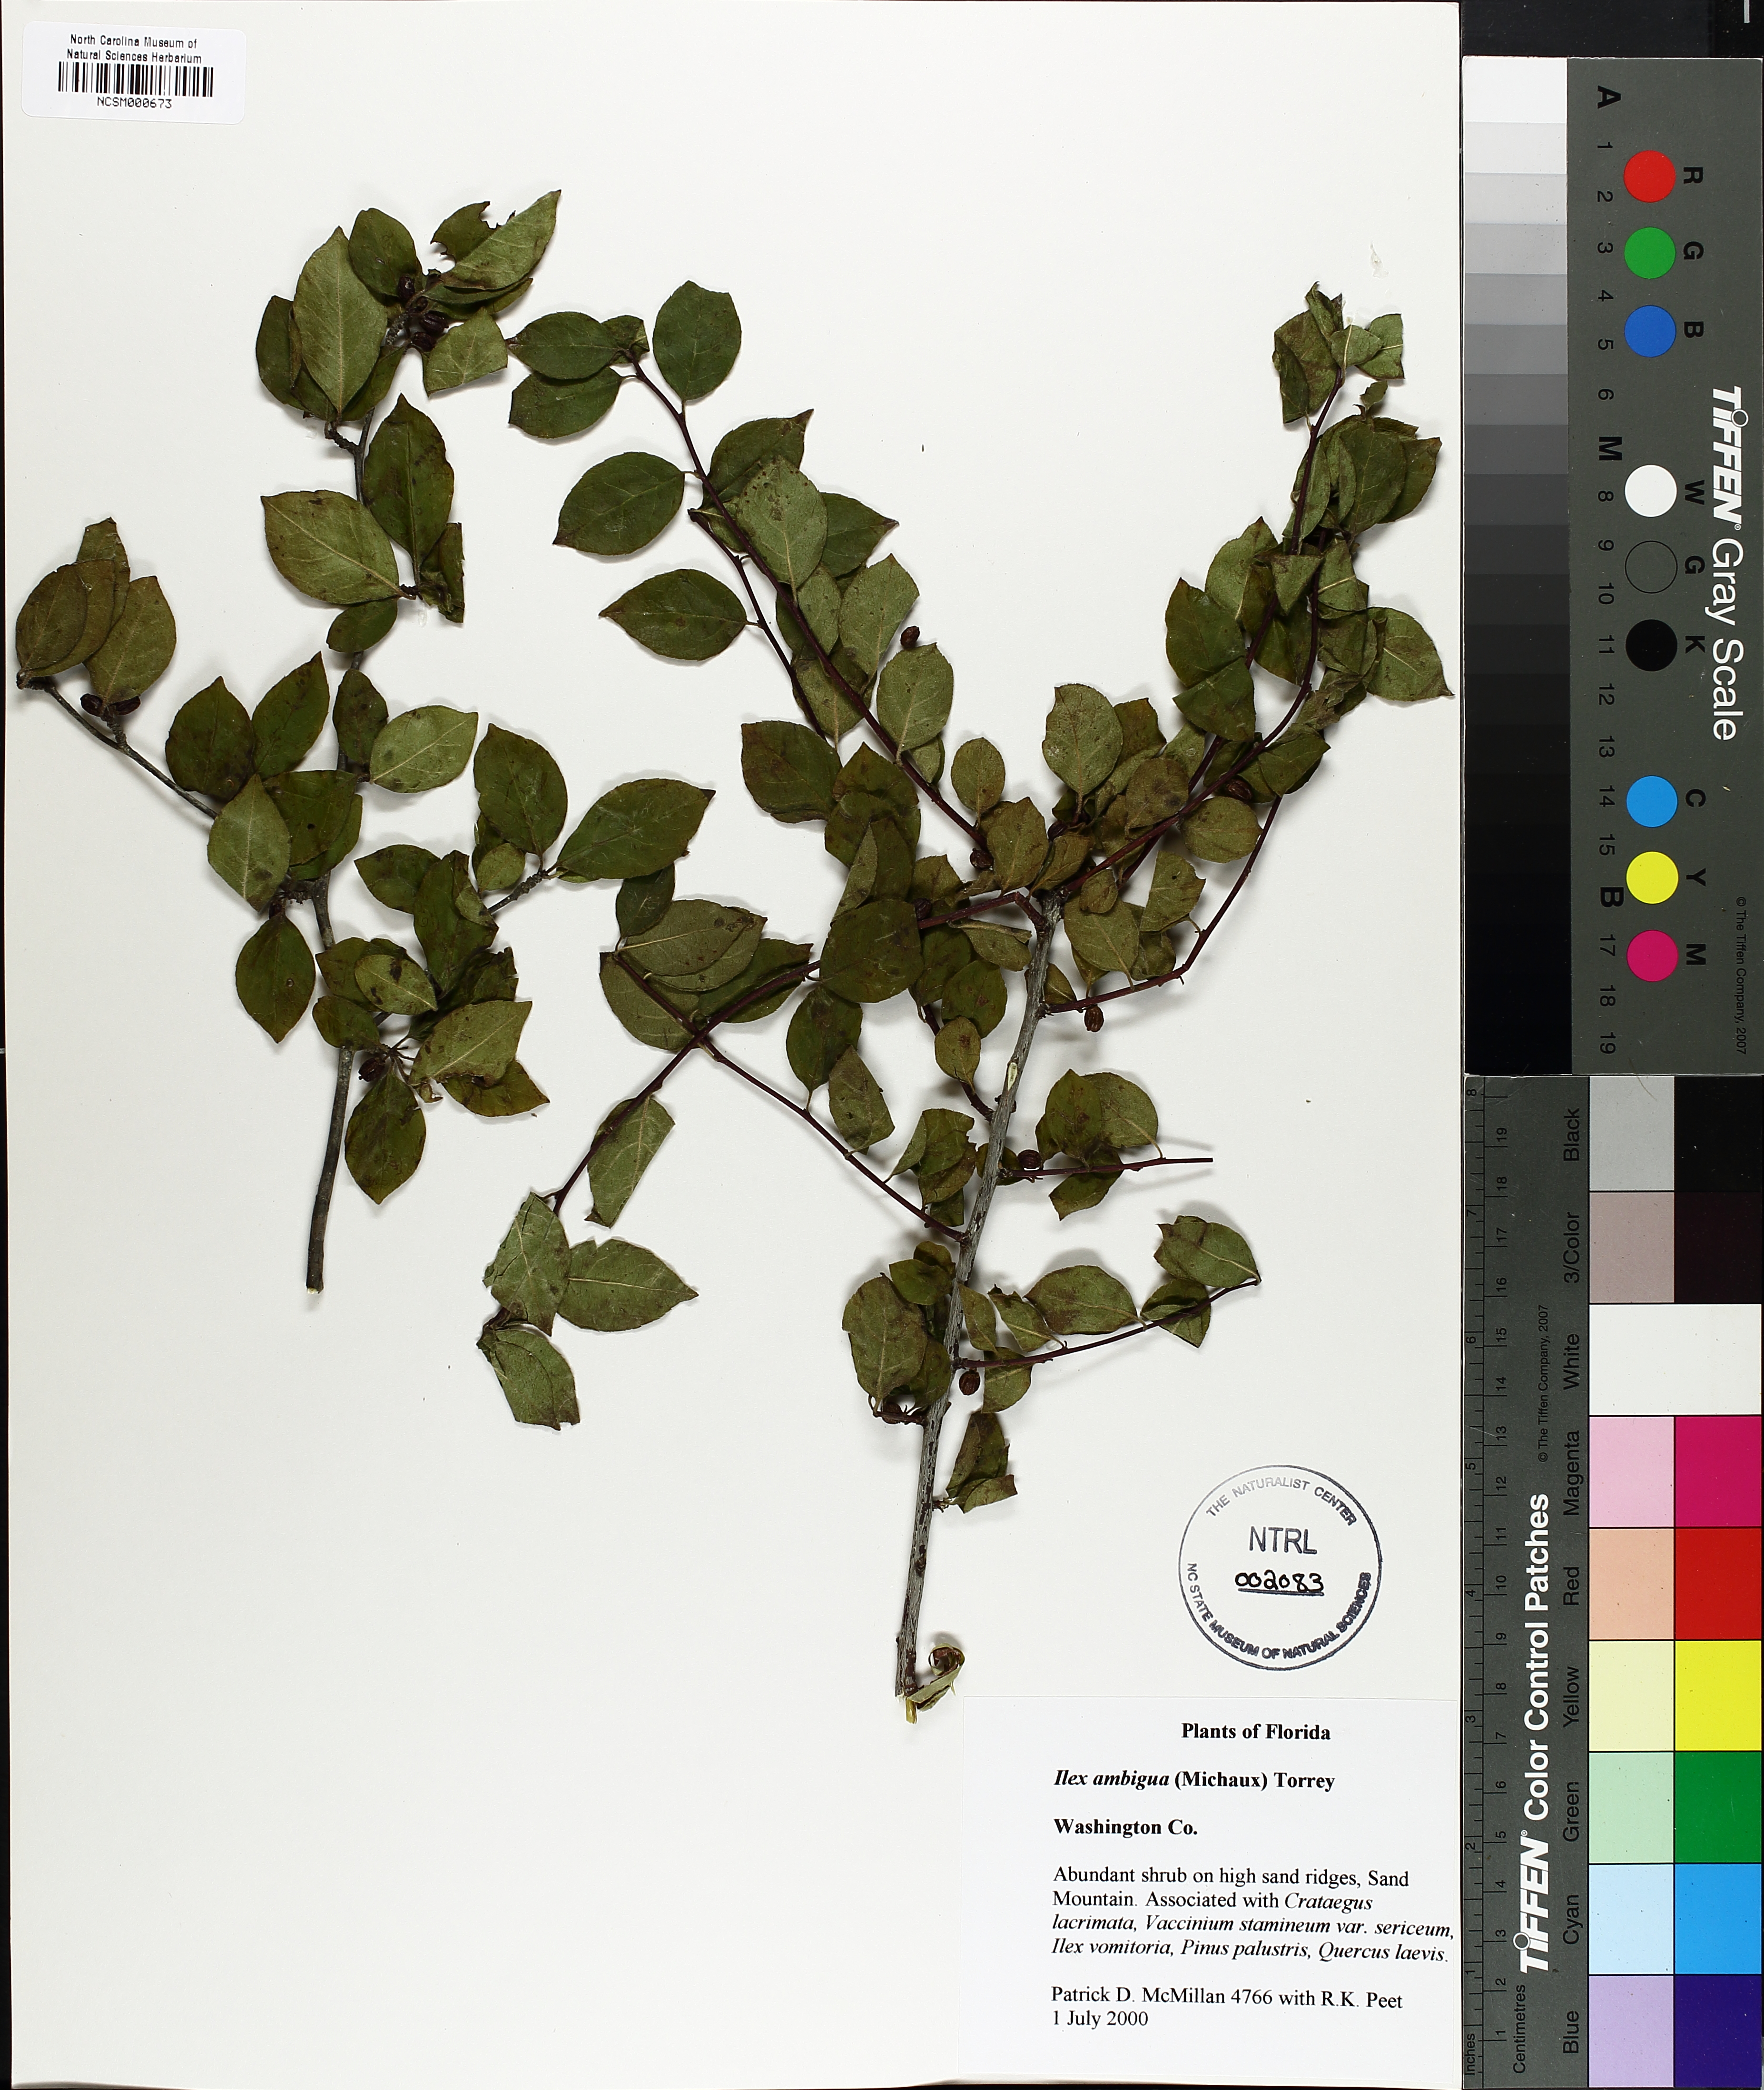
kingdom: Plantae
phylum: Tracheophyta
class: Magnoliopsida
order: Aquifoliales
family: Aquifoliaceae
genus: Ilex
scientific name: Ilex ambigua
